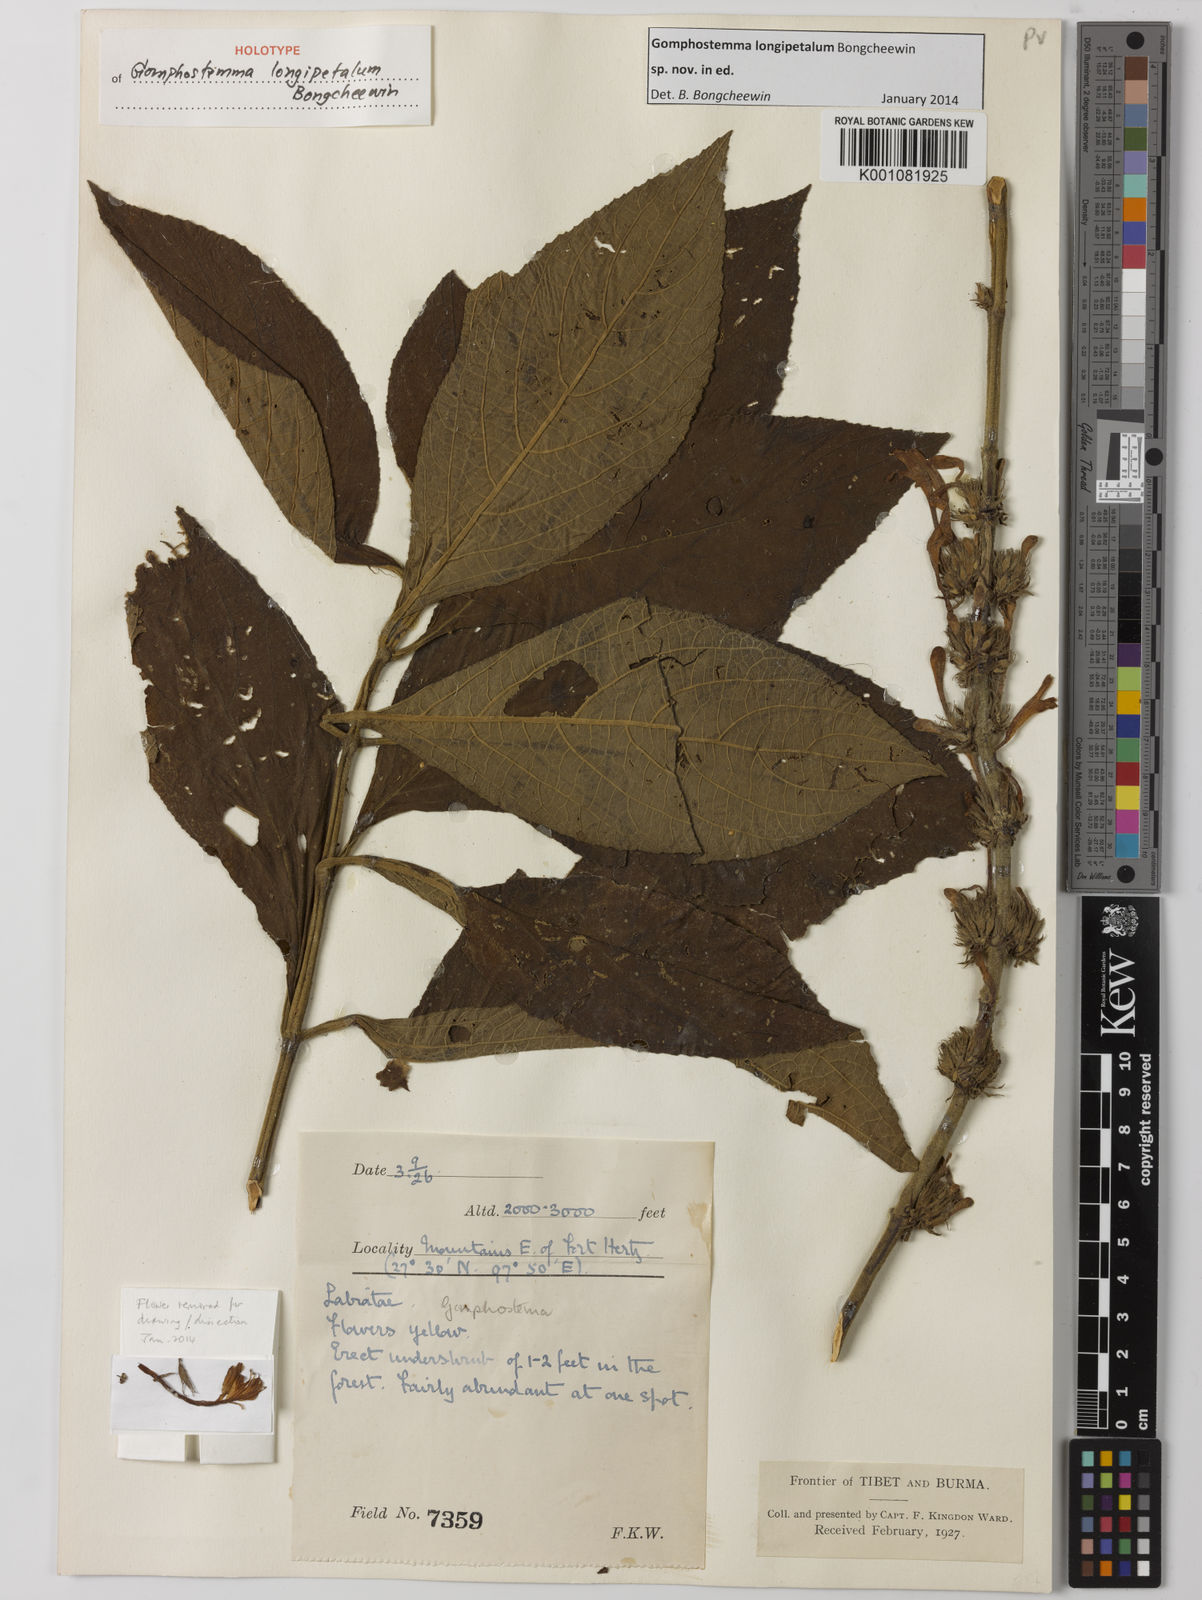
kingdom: Plantae
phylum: Tracheophyta
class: Magnoliopsida
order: Lamiales
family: Lamiaceae
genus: Gomphostemma
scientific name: Gomphostemma
